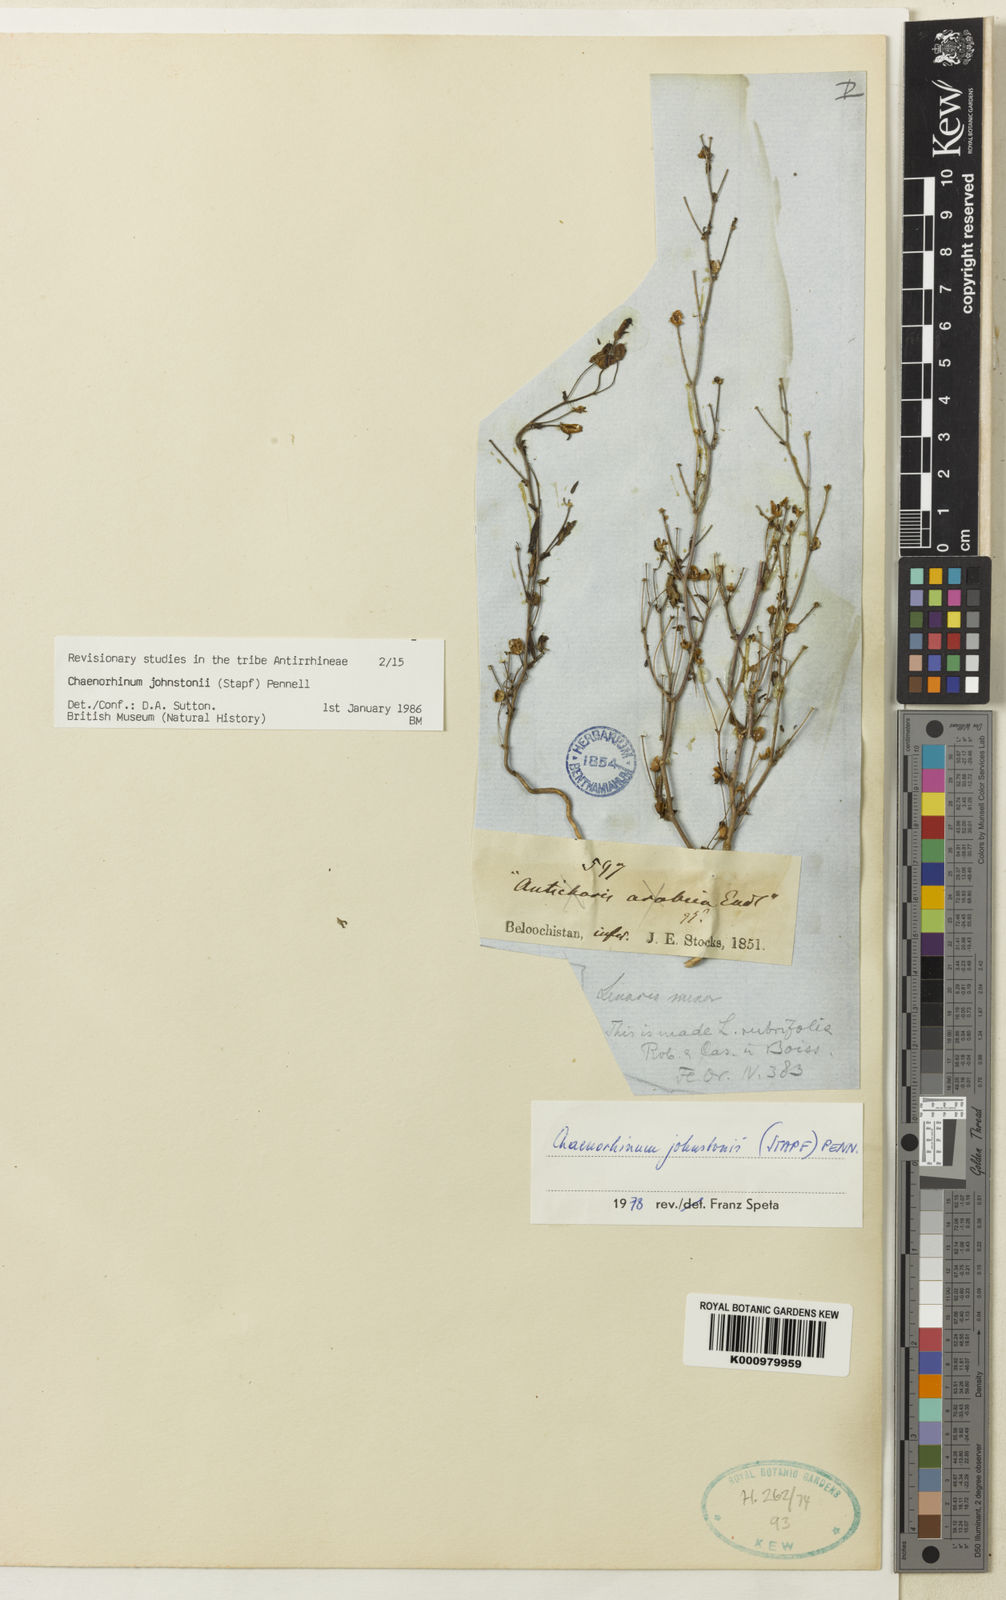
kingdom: Plantae
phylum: Tracheophyta
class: Magnoliopsida
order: Lamiales
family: Plantaginaceae
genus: Chaenorhinum
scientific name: Chaenorhinum johnstonii
